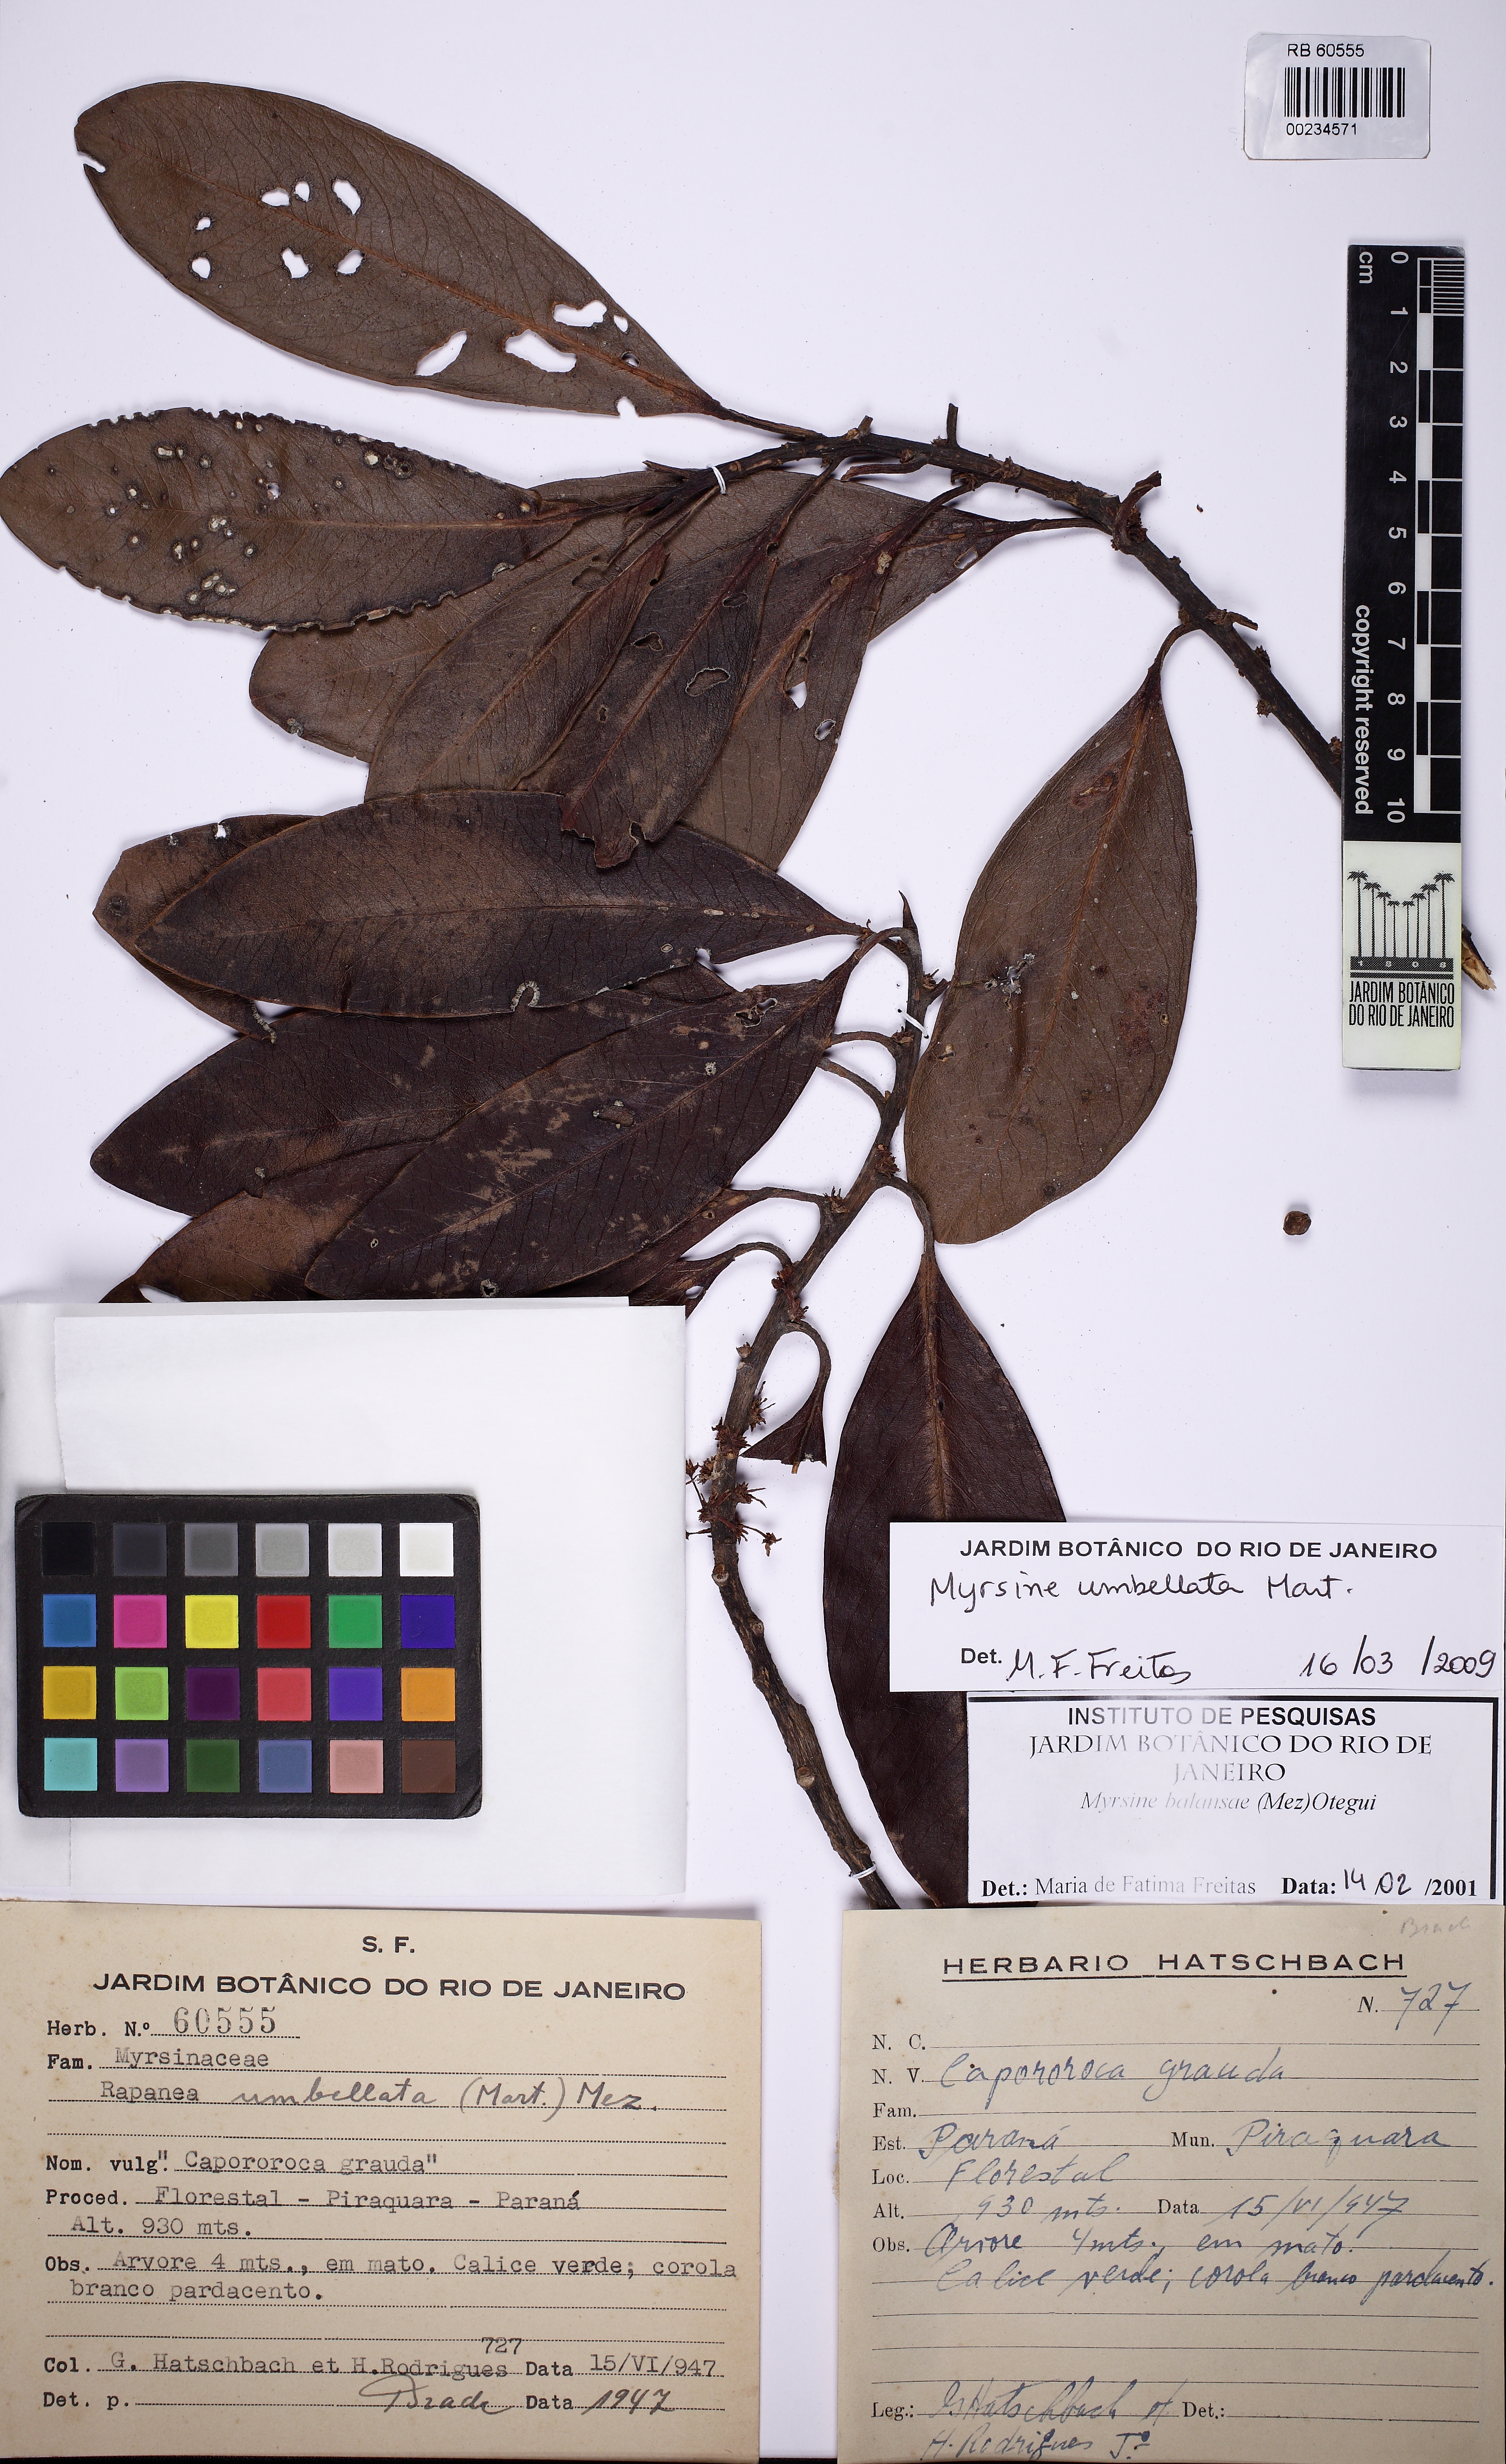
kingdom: Plantae
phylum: Tracheophyta
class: Magnoliopsida
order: Ericales
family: Primulaceae
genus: Myrsine
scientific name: Myrsine balansae
